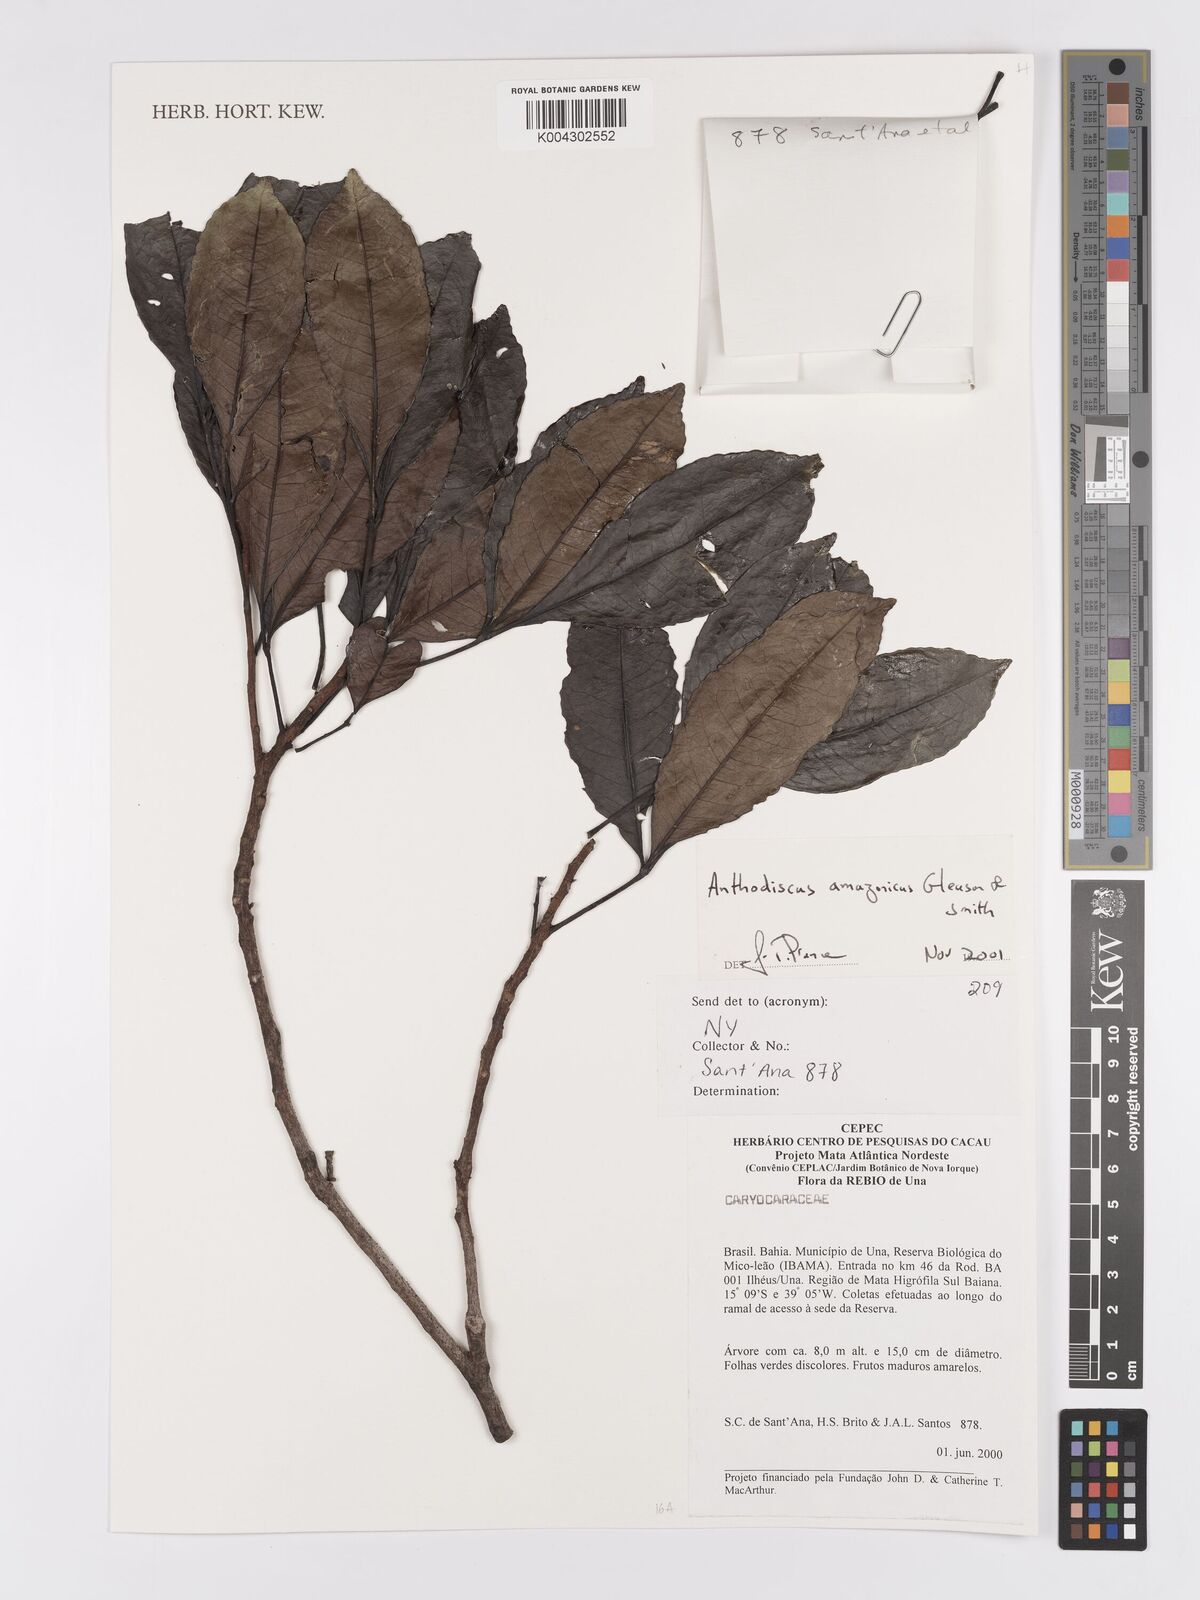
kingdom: Plantae
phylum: Tracheophyta
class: Magnoliopsida
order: Malpighiales
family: Caryocaraceae
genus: Anthodiscus
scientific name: Anthodiscus amazonicus
